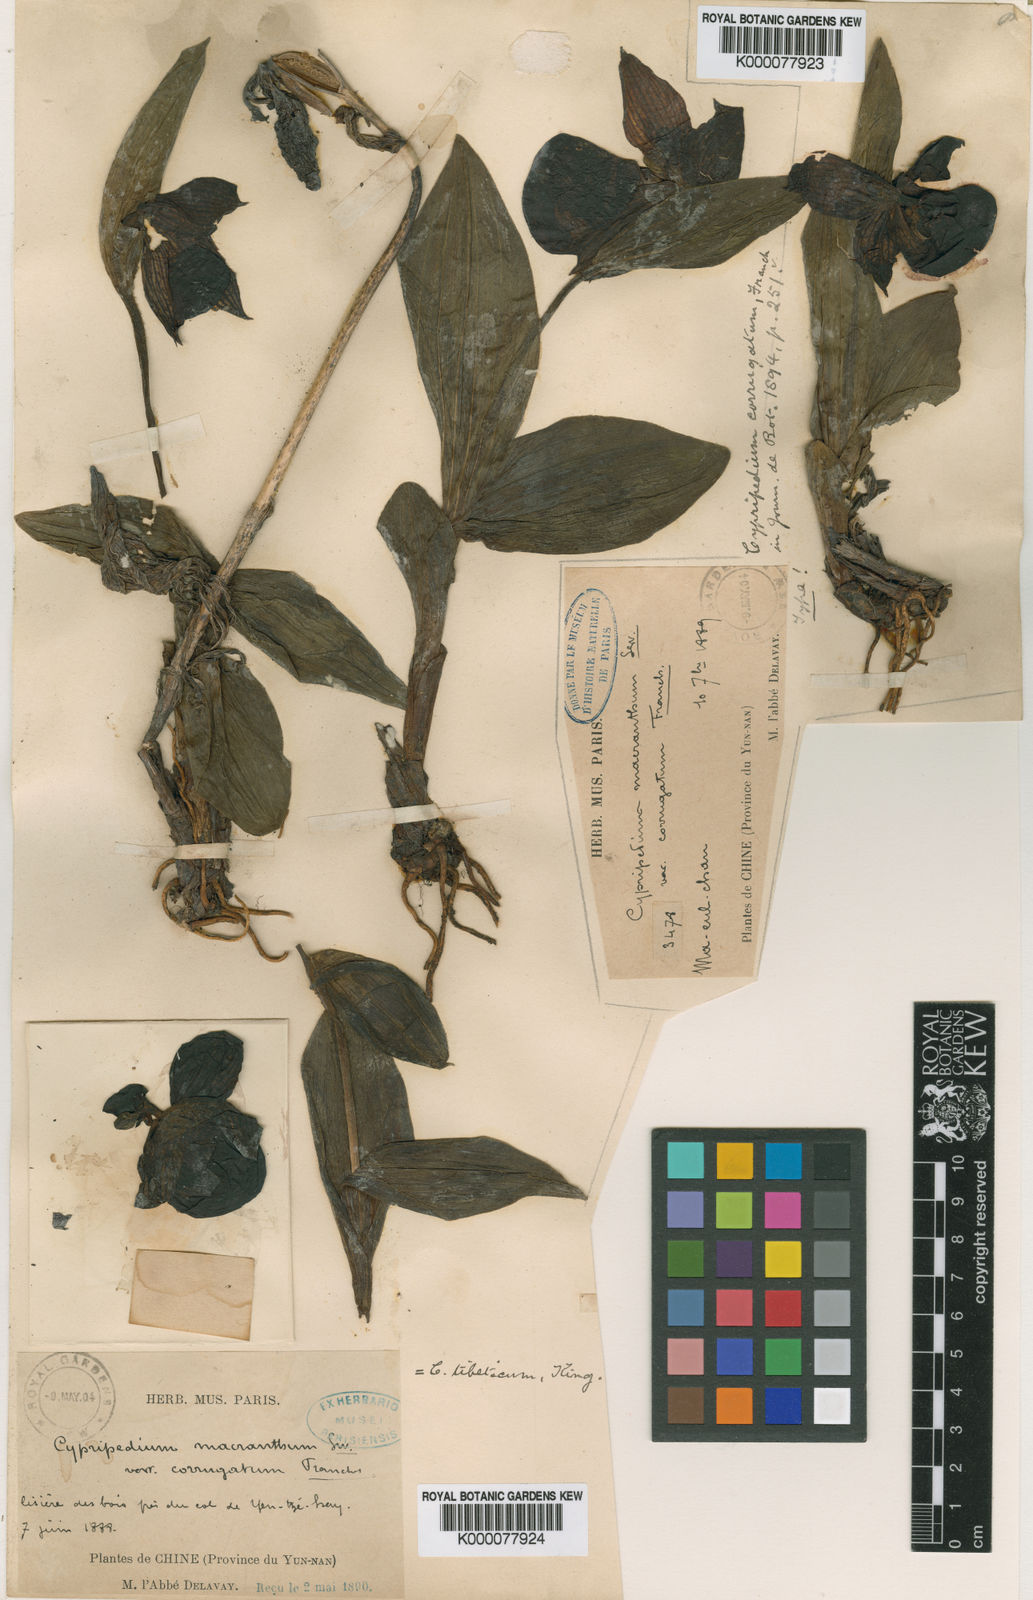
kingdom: Plantae
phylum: Tracheophyta
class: Liliopsida
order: Asparagales
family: Orchidaceae
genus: Cypripedium
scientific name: Cypripedium tibeticum
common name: Tibetan cypripedium
